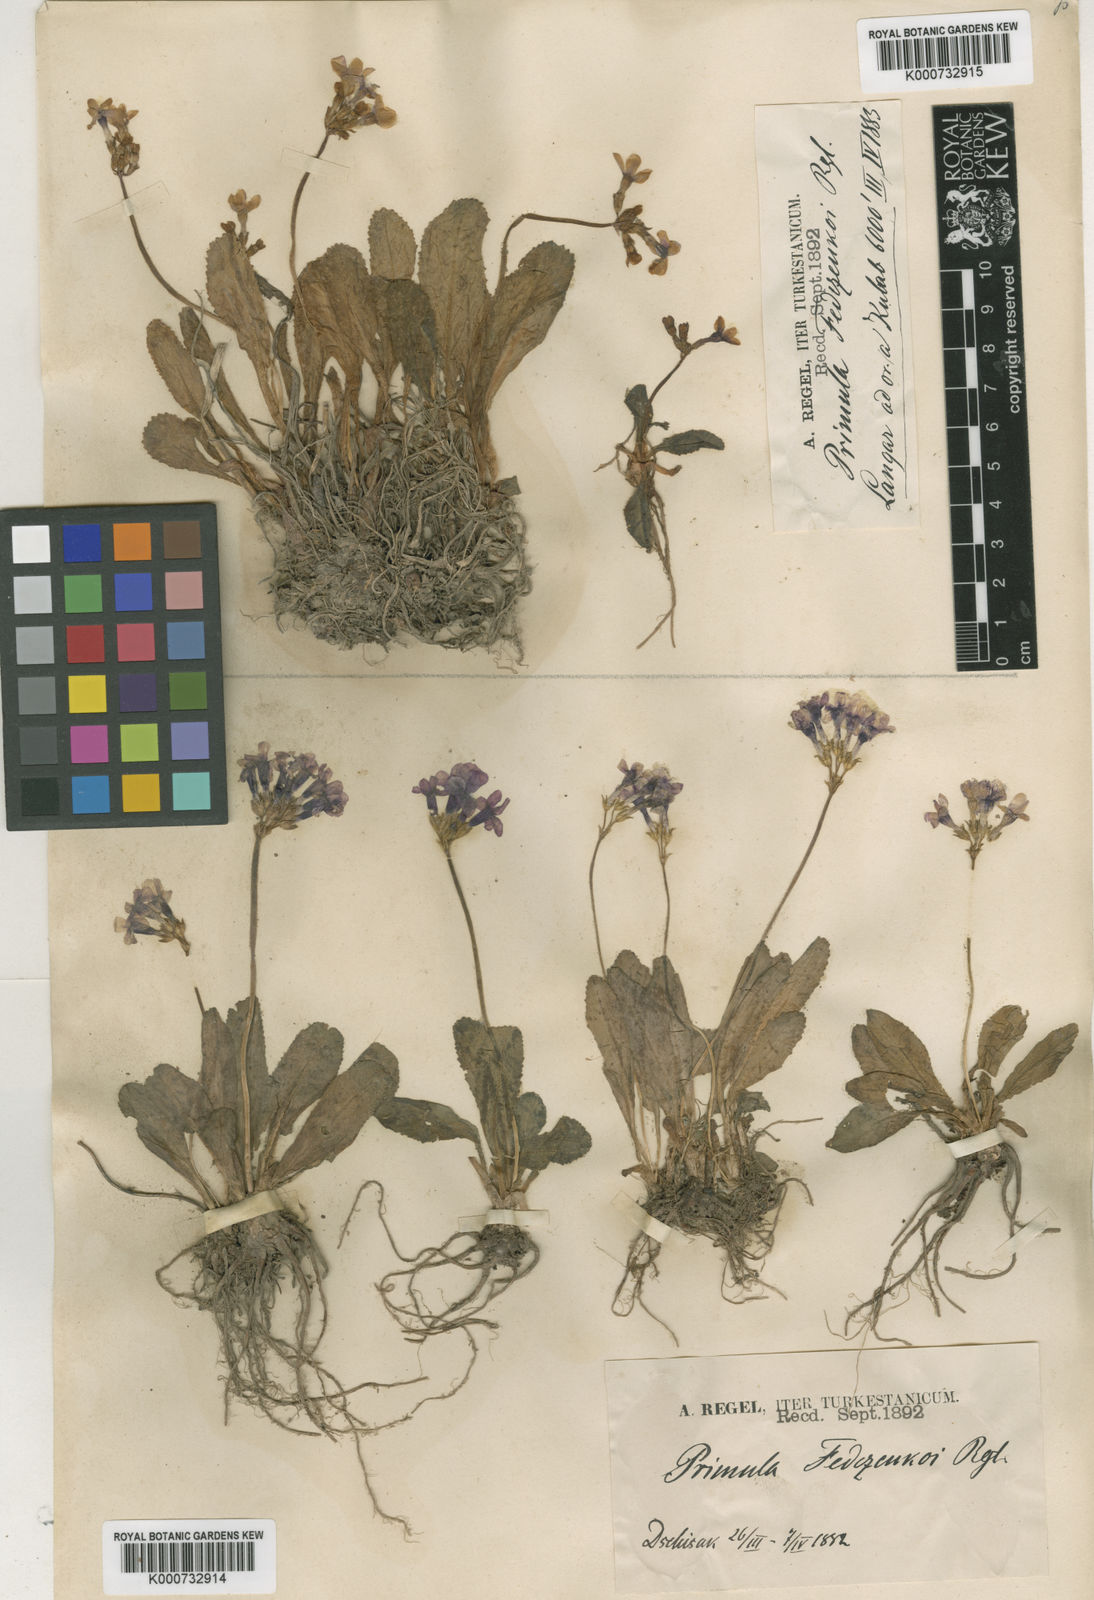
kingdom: Plantae
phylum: Tracheophyta
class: Magnoliopsida
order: Ericales
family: Primulaceae
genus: Primula
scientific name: Primula
